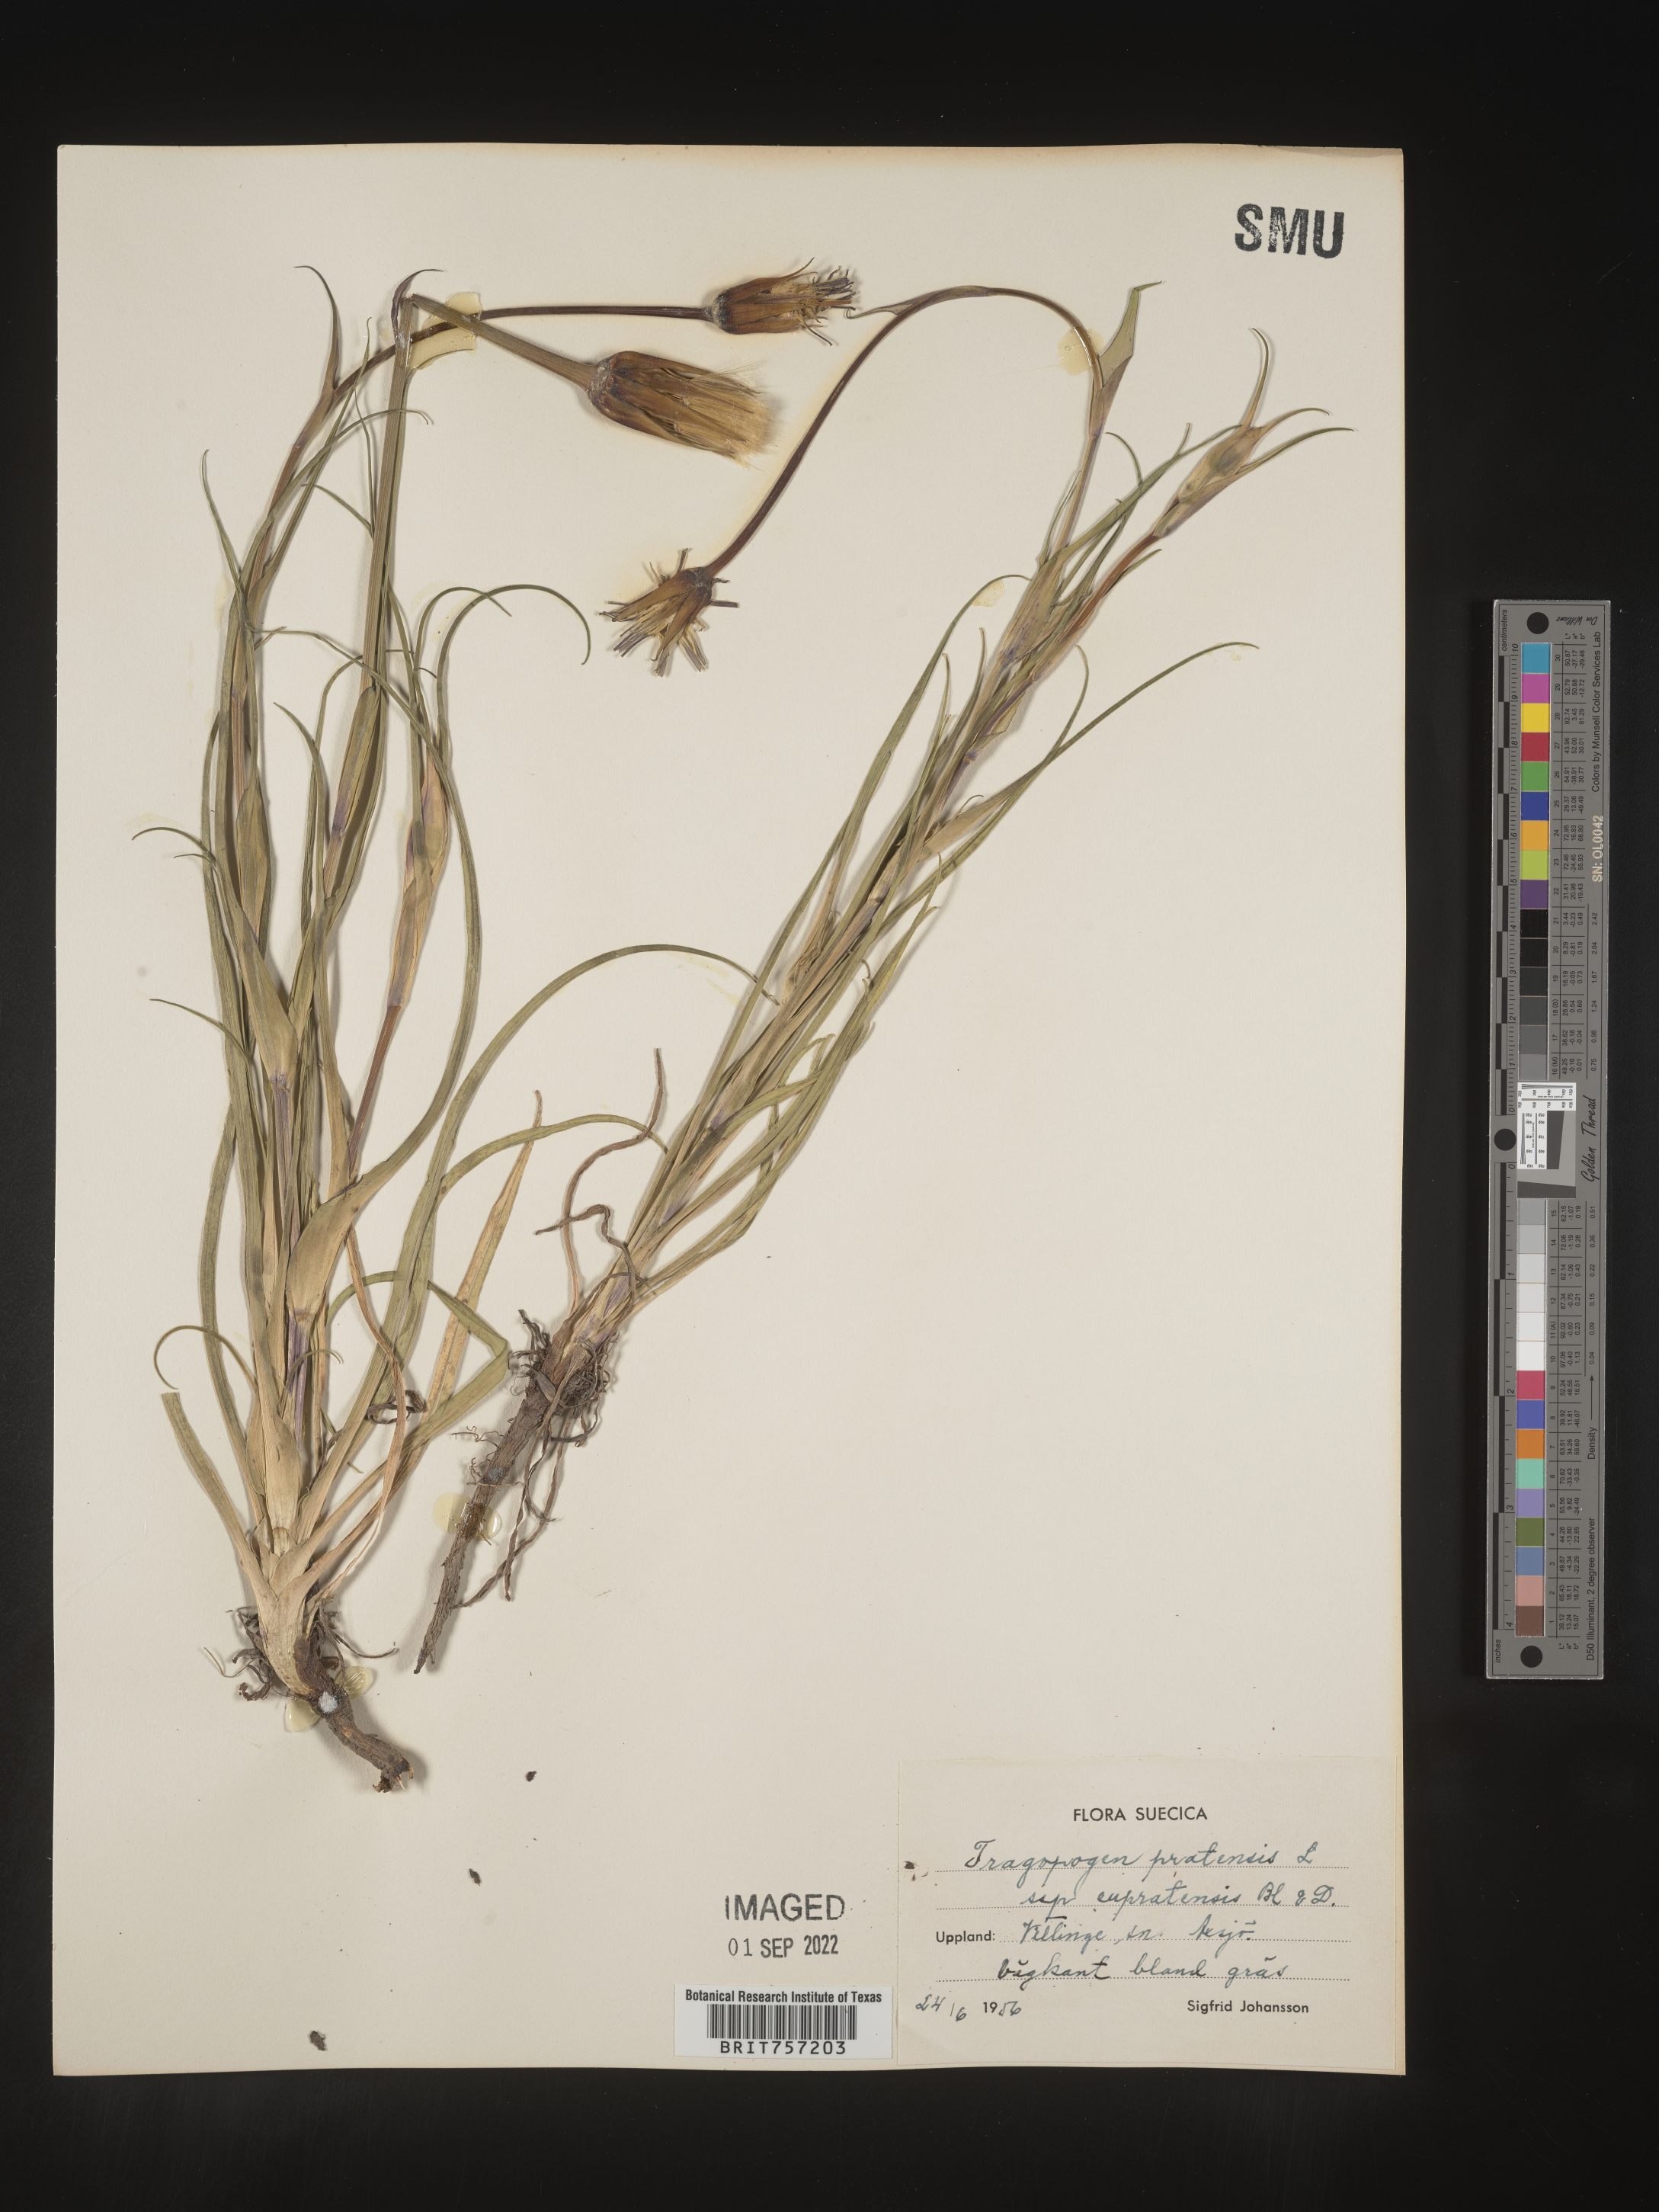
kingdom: Plantae
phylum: Tracheophyta
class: Magnoliopsida
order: Asterales
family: Asteraceae
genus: Tragopogon
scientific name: Tragopogon
